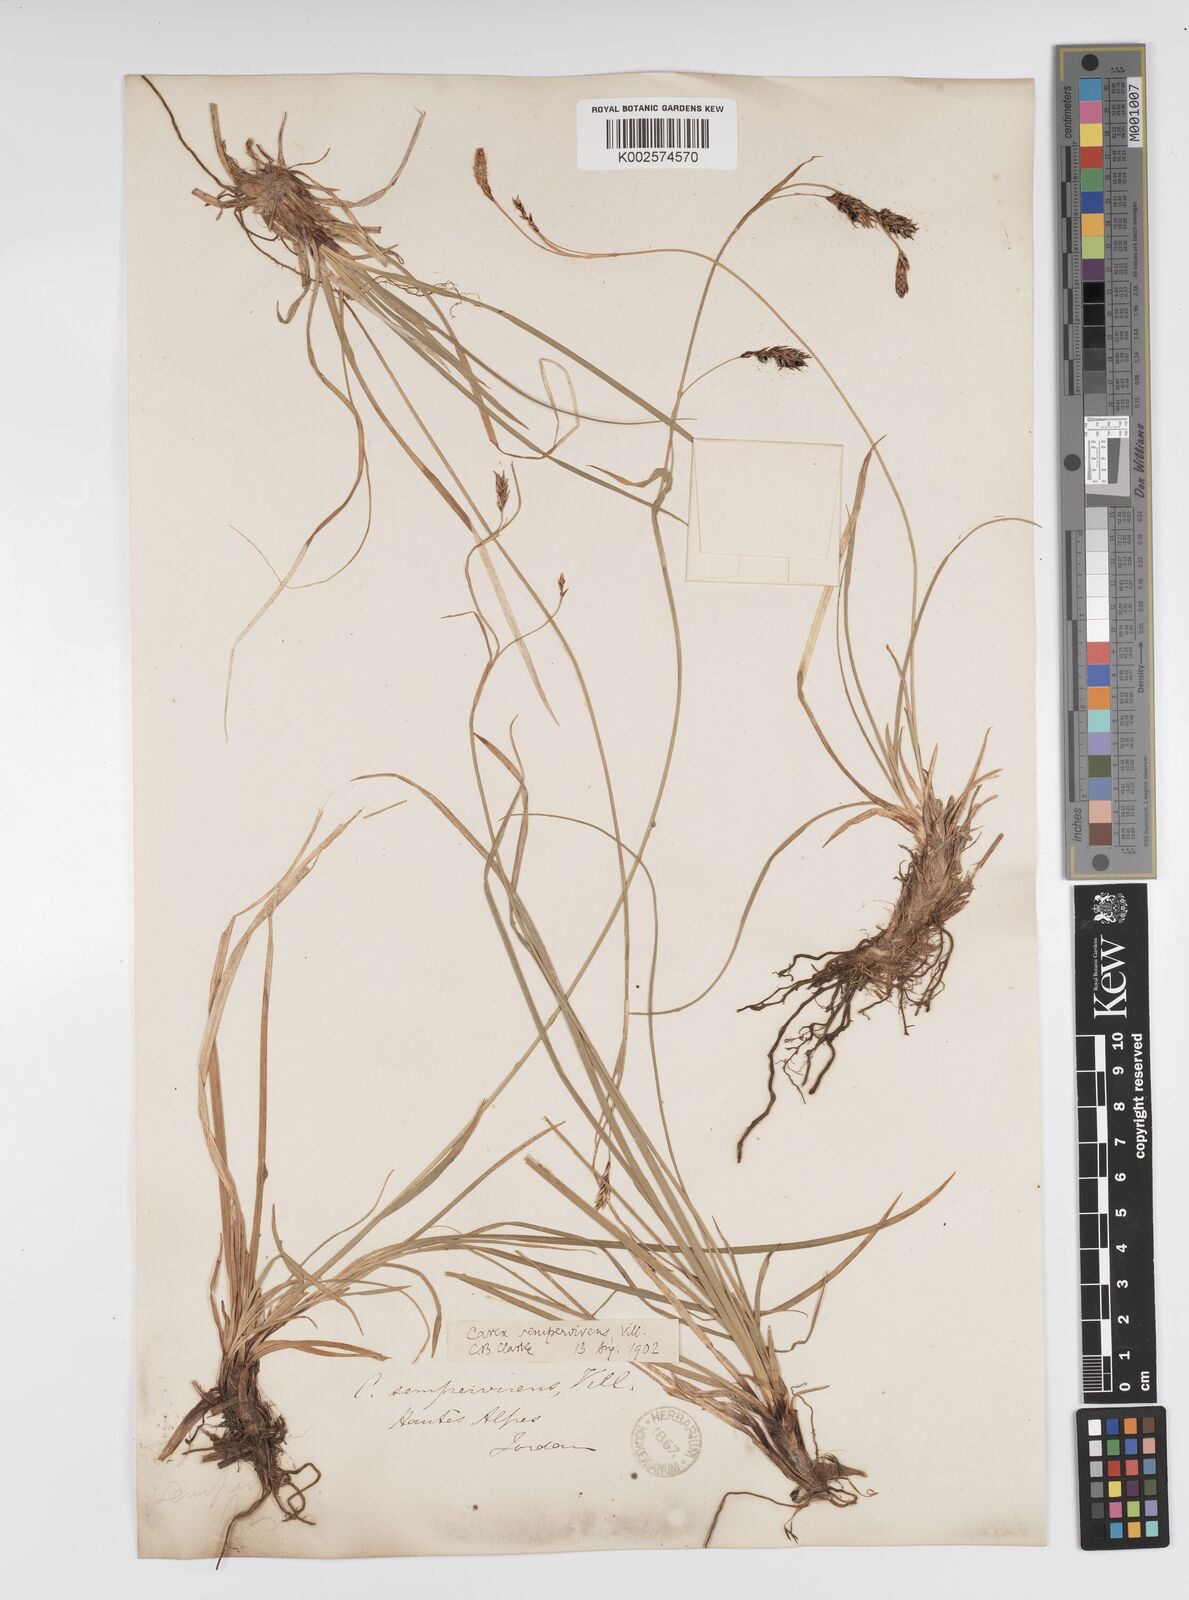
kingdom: Plantae
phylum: Tracheophyta
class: Liliopsida
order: Poales
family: Cyperaceae
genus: Carex
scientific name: Carex sempervirens
